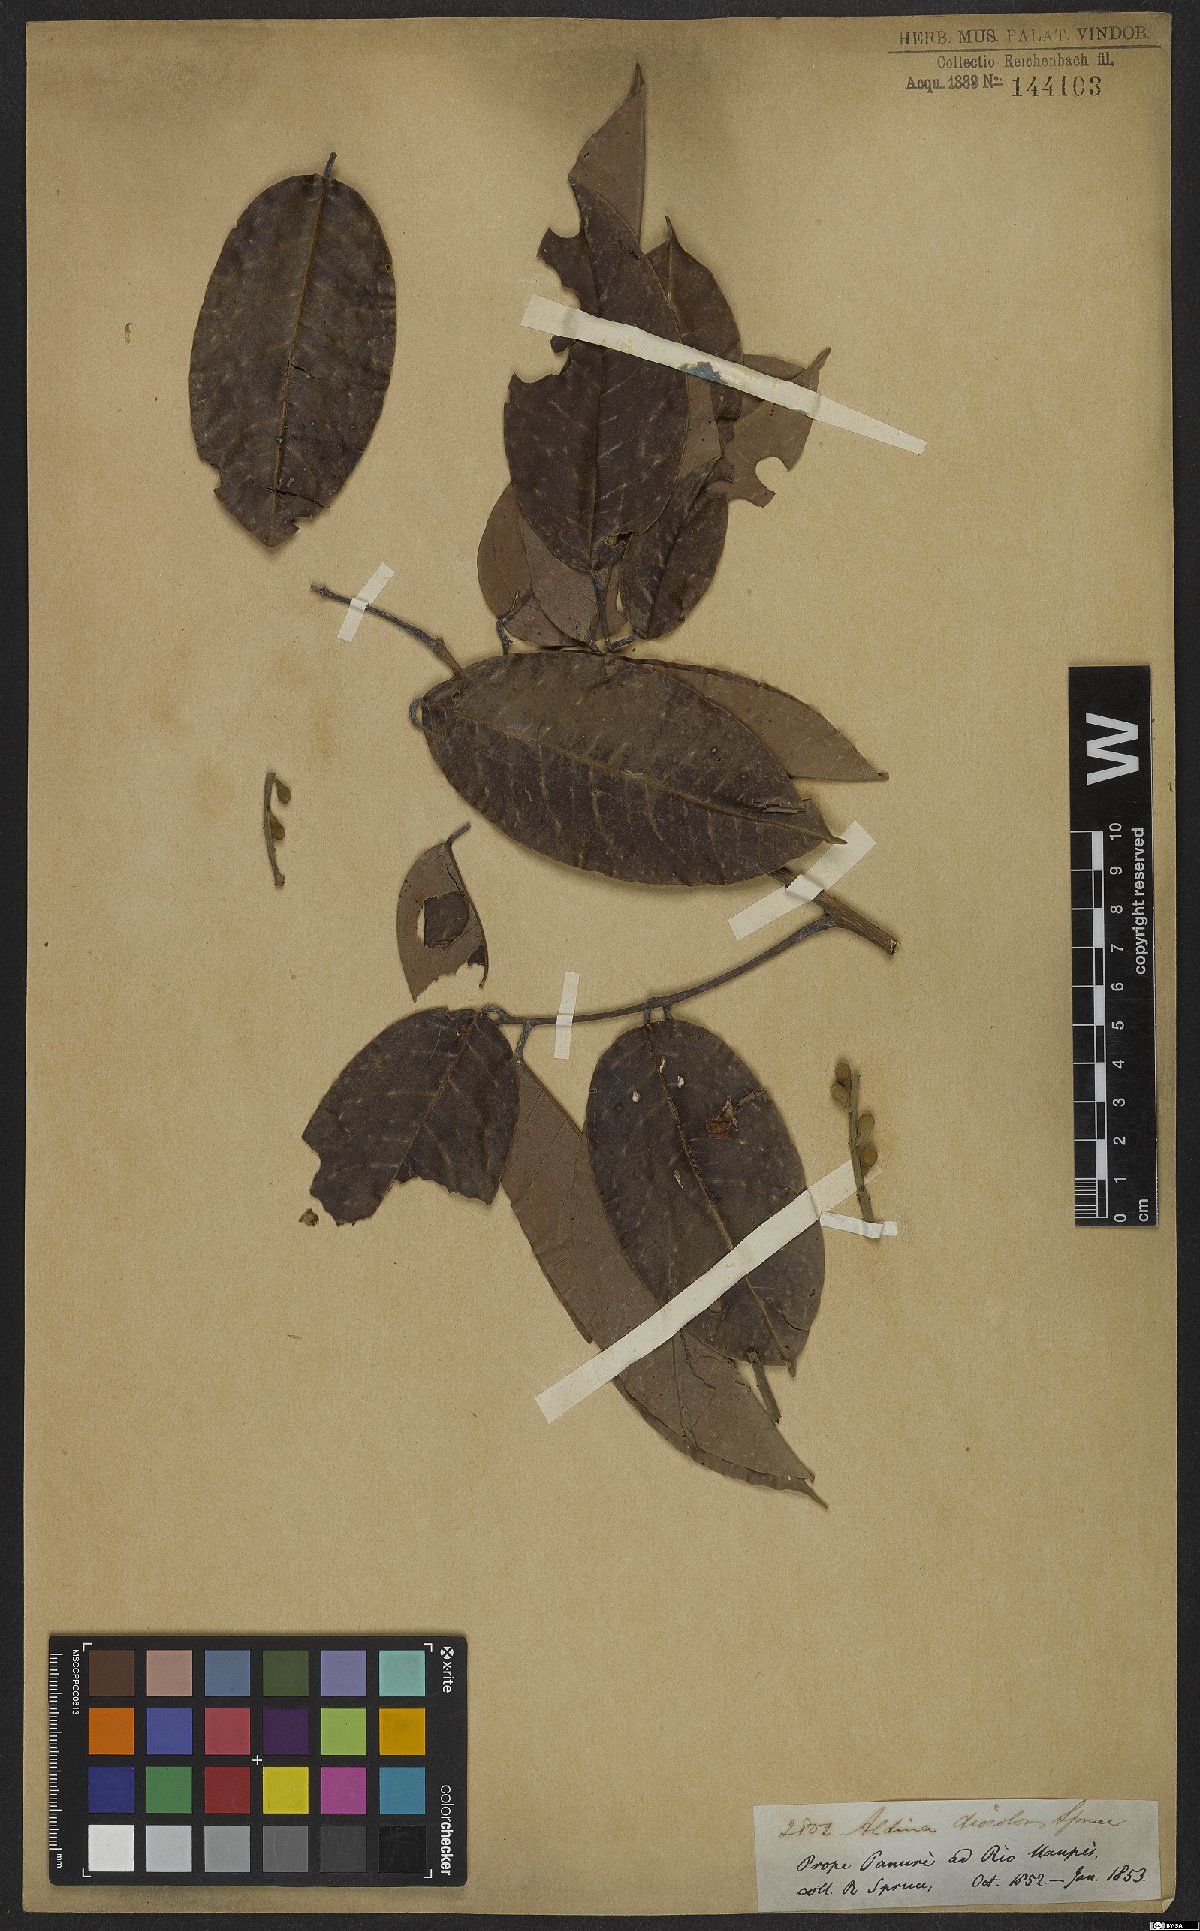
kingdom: Plantae
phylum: Tracheophyta
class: Magnoliopsida
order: Fabales
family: Fabaceae
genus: Aldina
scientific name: Aldina discolor
